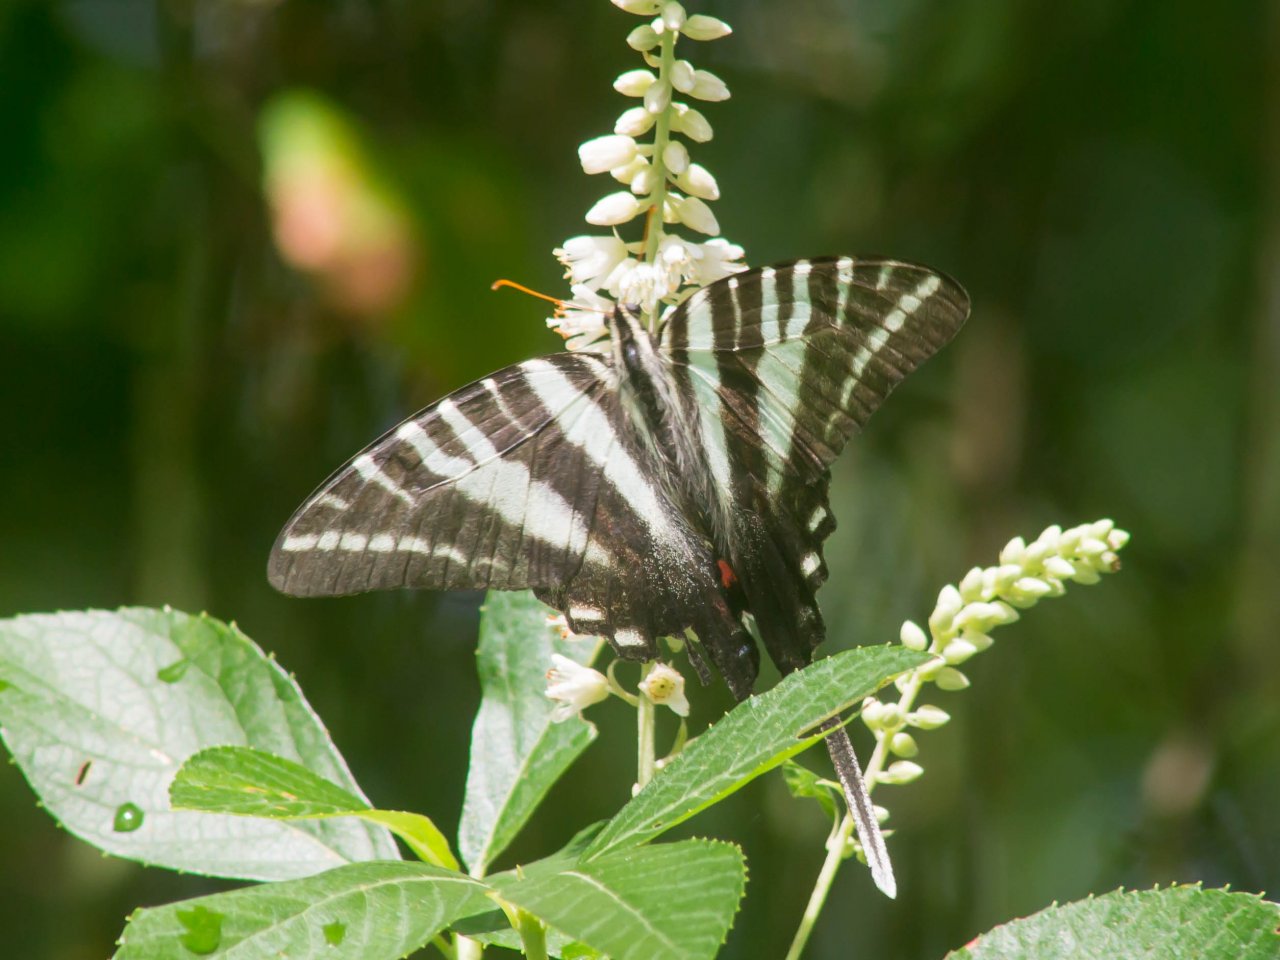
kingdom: Animalia
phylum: Arthropoda
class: Insecta
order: Lepidoptera
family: Papilionidae
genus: Protographium
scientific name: Protographium marcellus
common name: Zebra Swallowtail
